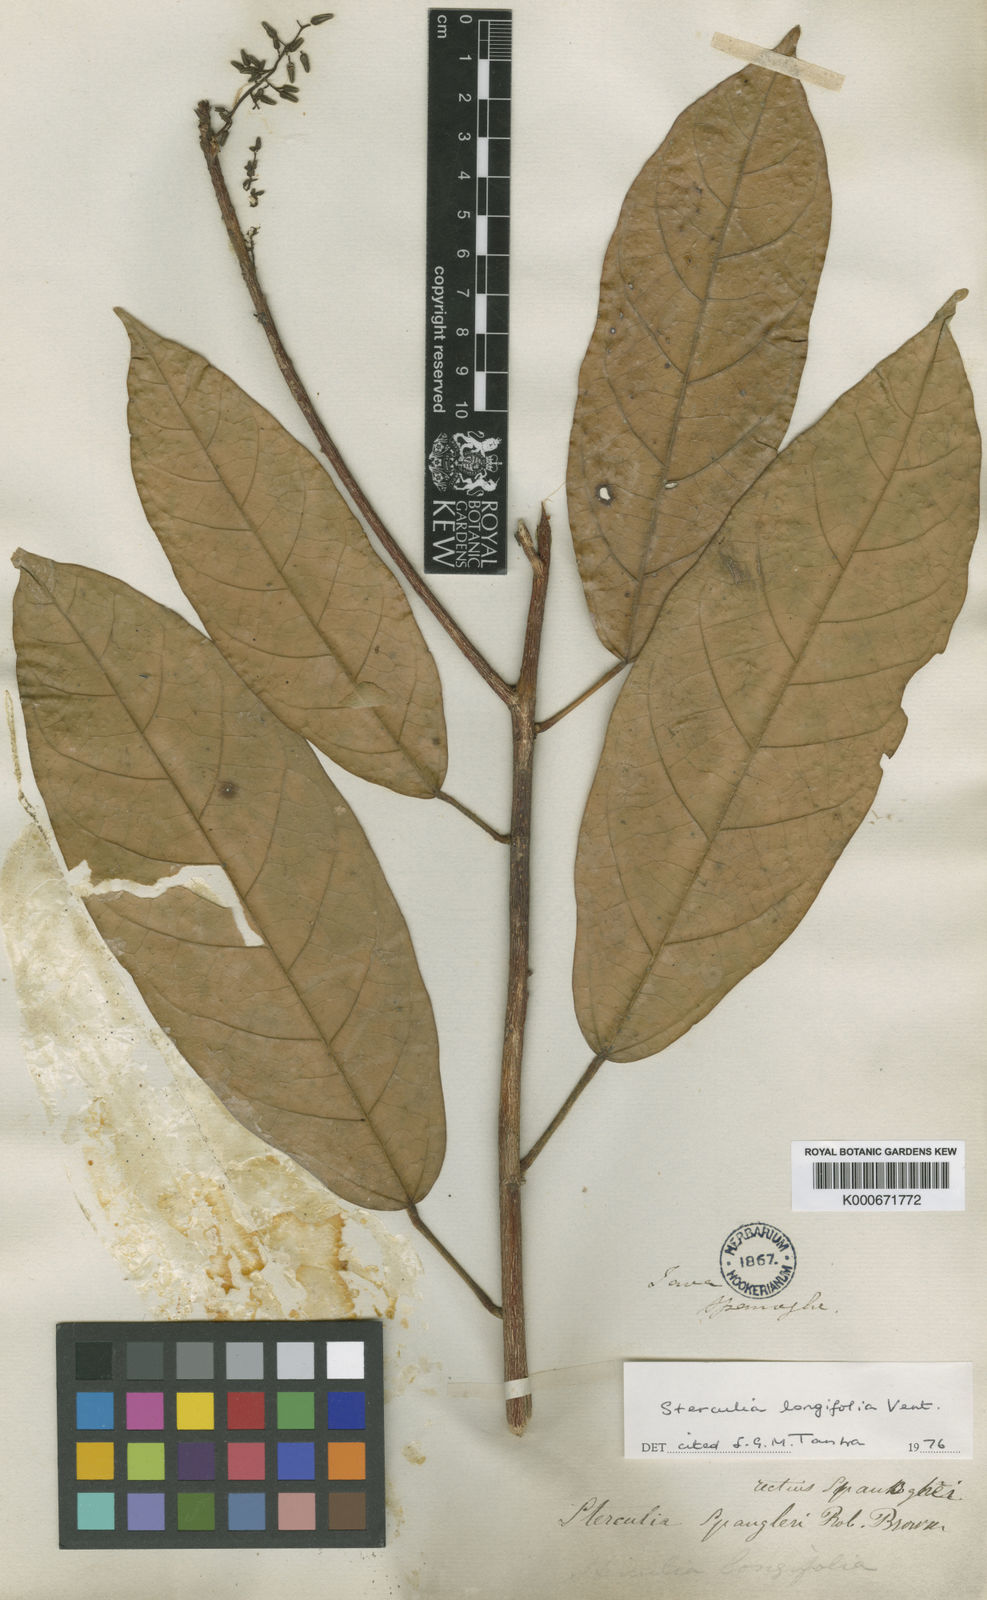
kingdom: Plantae
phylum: Tracheophyta
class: Magnoliopsida
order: Malvales
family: Malvaceae
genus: Sterculia
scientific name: Sterculia longifolia
